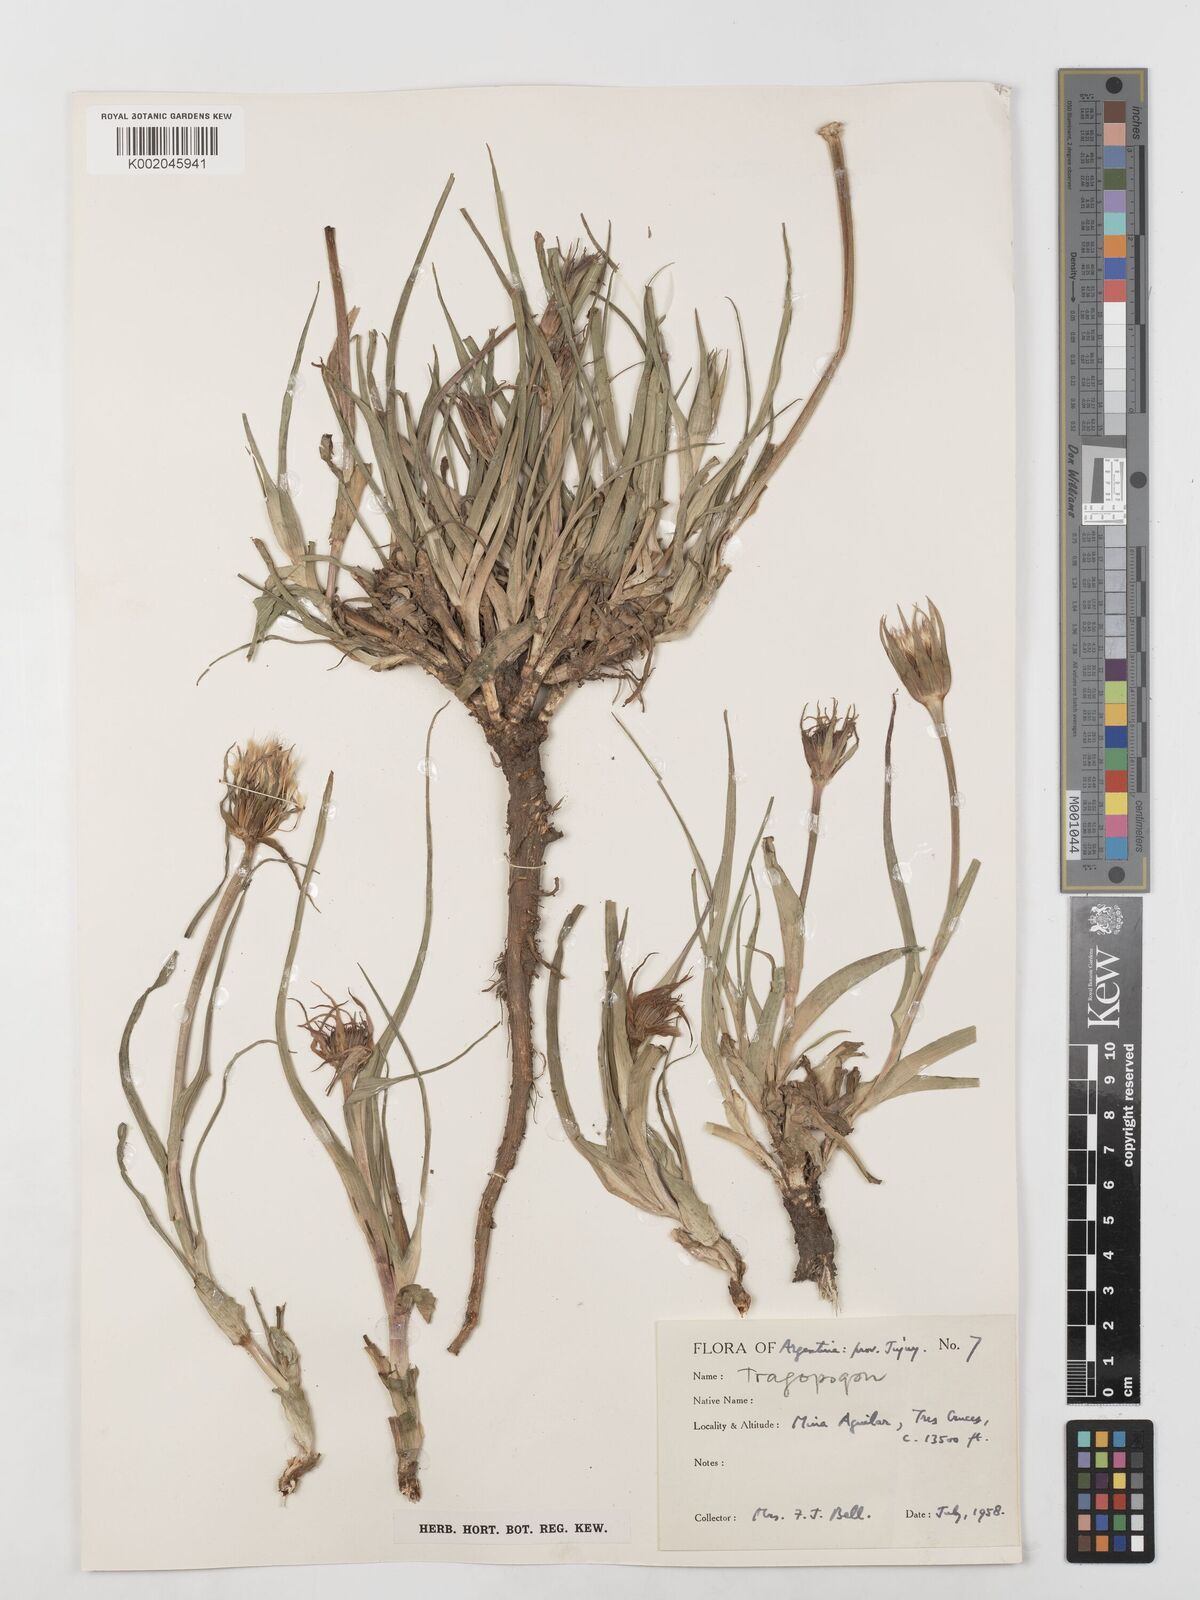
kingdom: Plantae
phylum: Tracheophyta
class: Magnoliopsida
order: Asterales
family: Asteraceae
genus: Tragopogon
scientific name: Tragopogon
